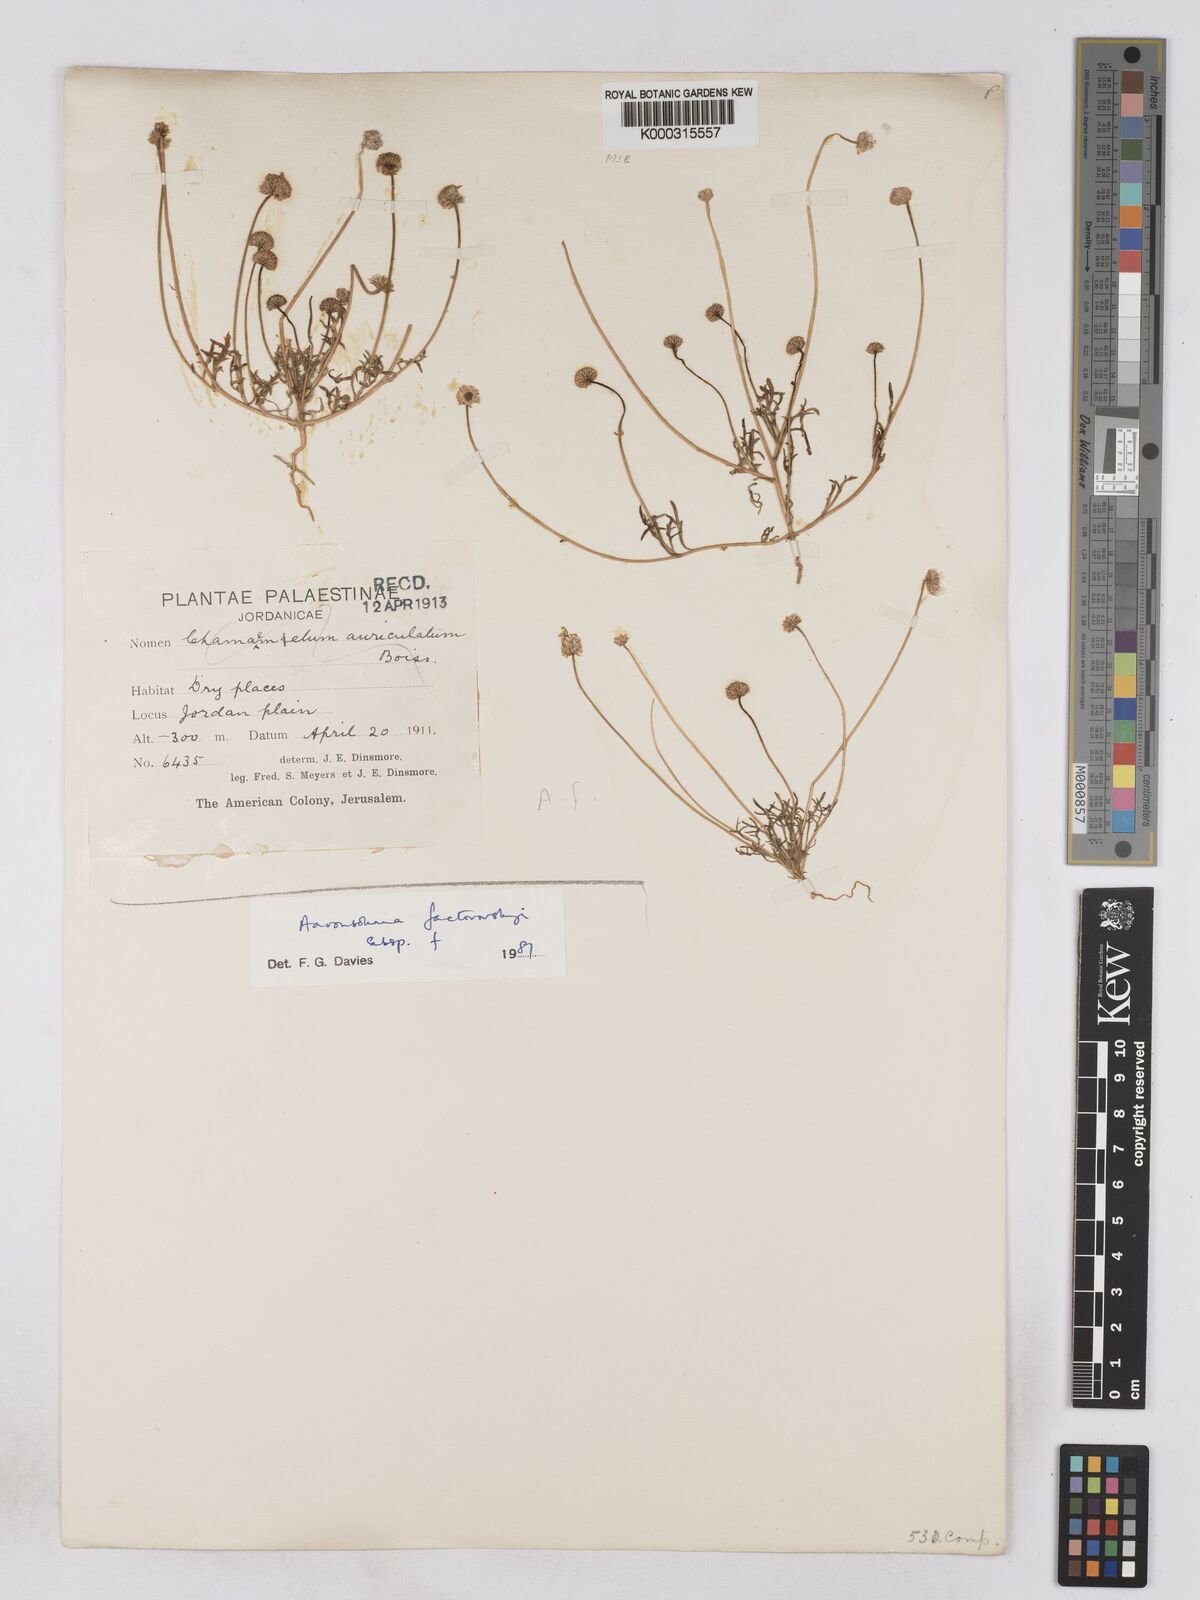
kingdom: Plantae
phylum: Tracheophyta
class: Magnoliopsida
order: Asterales
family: Asteraceae
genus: Otoglyphis
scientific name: Otoglyphis factorovskyi
